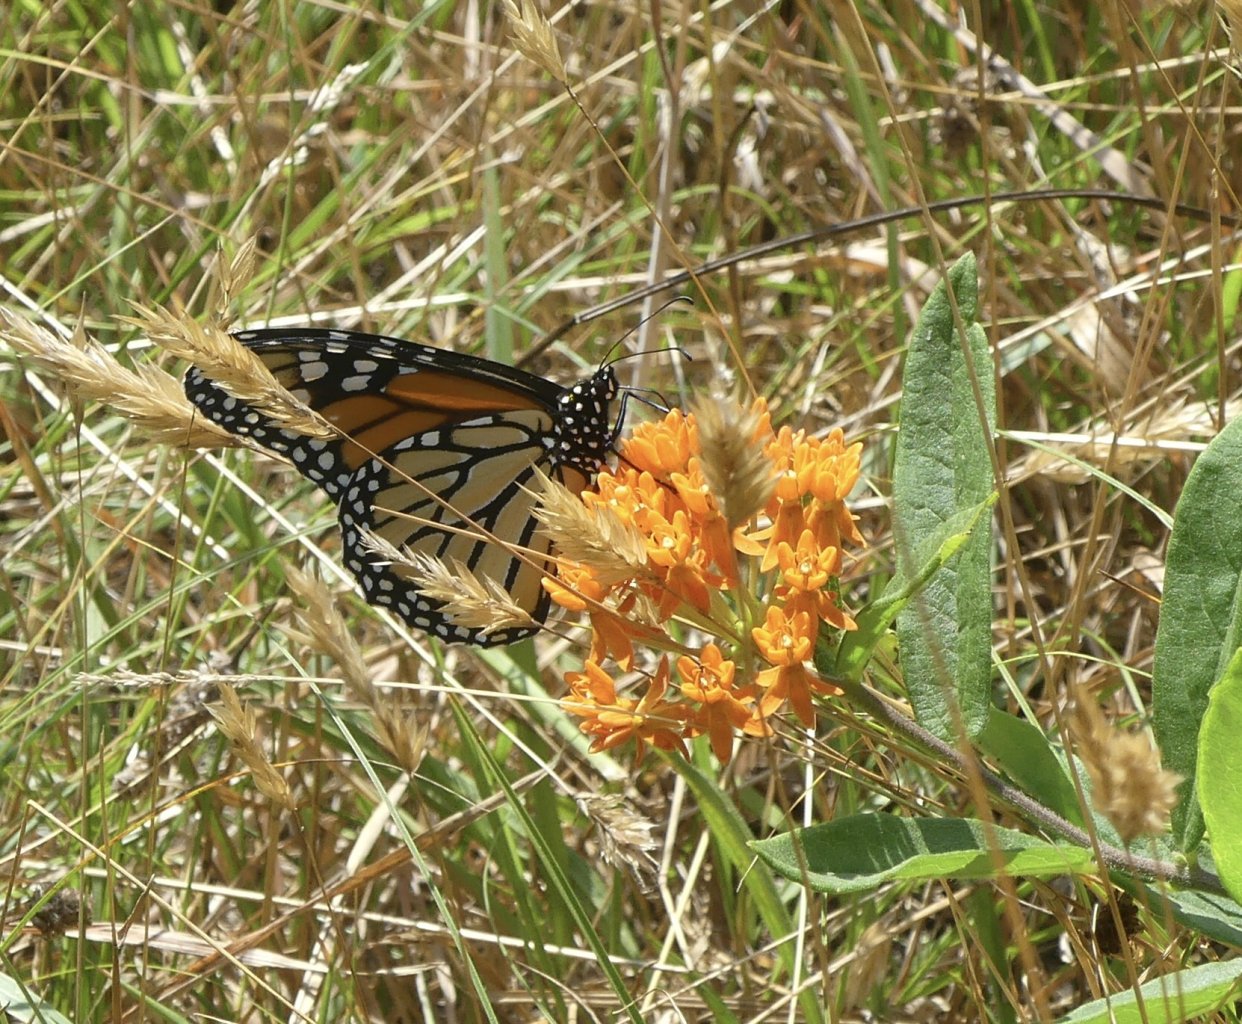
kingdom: Animalia
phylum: Arthropoda
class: Insecta
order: Lepidoptera
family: Nymphalidae
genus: Danaus
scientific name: Danaus plexippus
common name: Monarch
